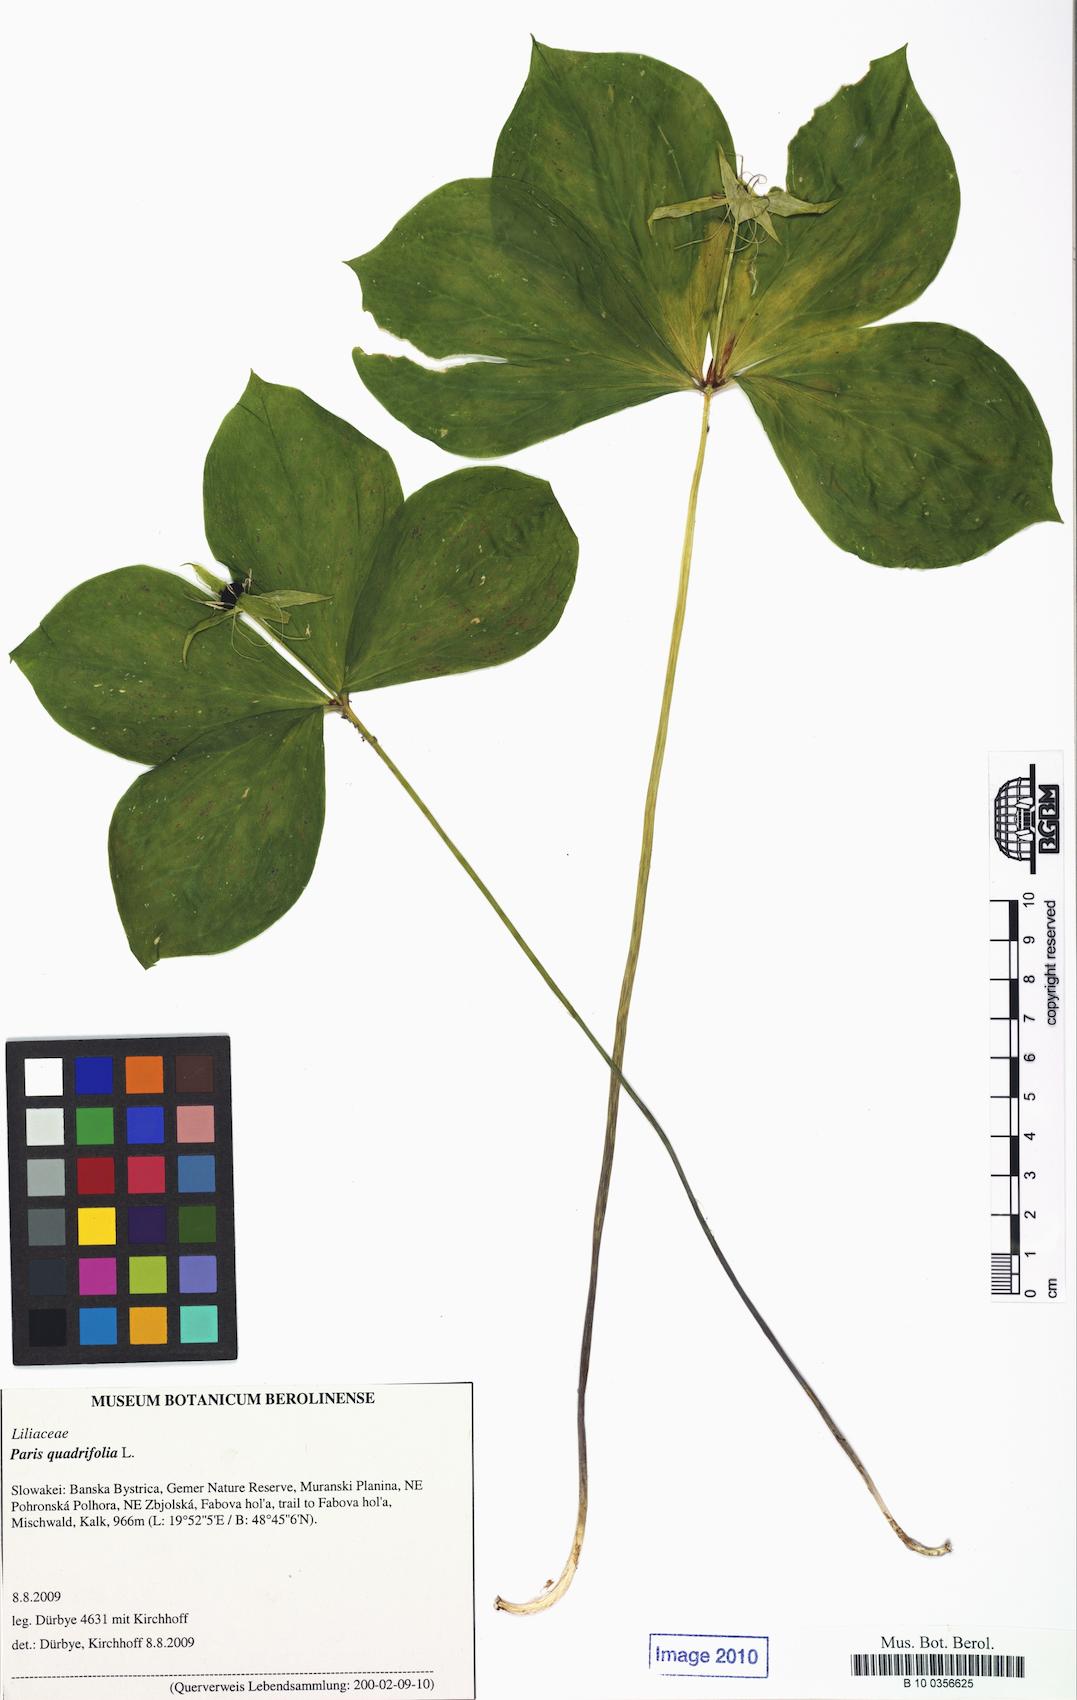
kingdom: Plantae
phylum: Tracheophyta
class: Liliopsida
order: Liliales
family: Melanthiaceae
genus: Paris
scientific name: Paris quadrifolia
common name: Herb-paris
